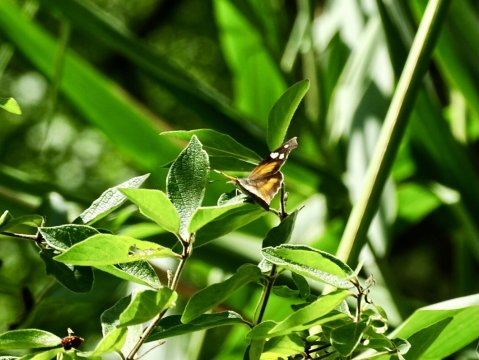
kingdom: Animalia
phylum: Arthropoda
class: Insecta
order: Lepidoptera
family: Nymphalidae
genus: Libytheana
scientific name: Libytheana carinenta
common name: American Snout
